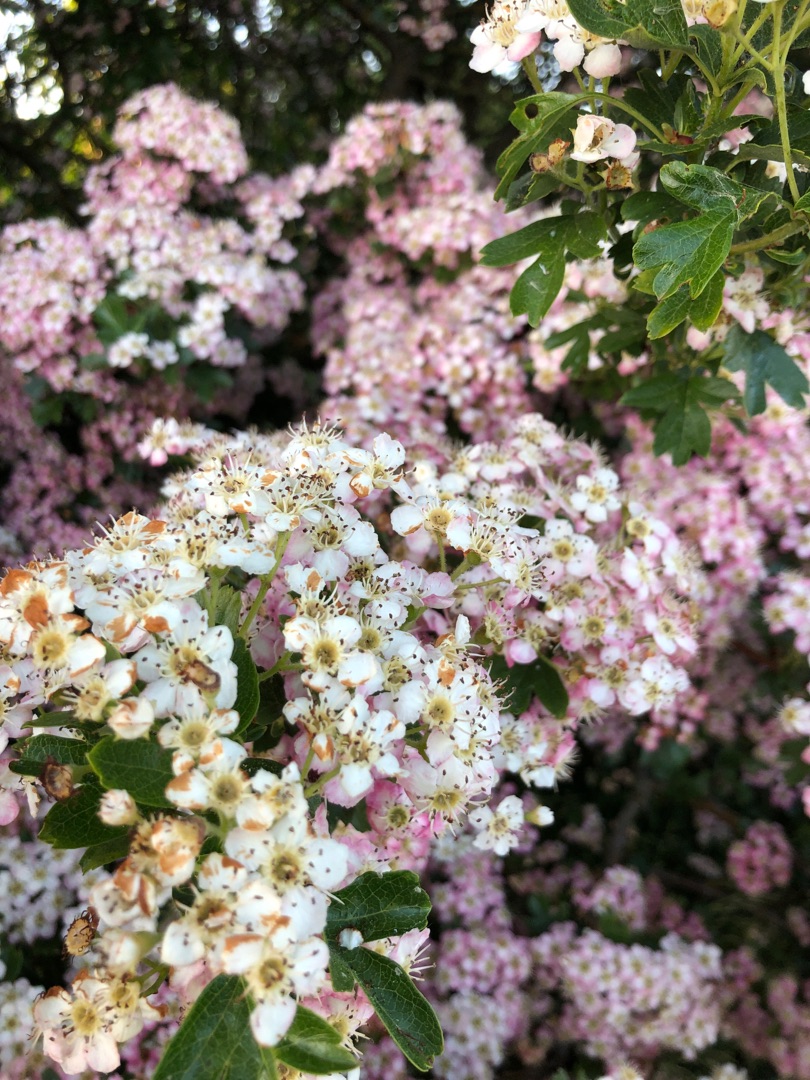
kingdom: Plantae
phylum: Tracheophyta
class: Magnoliopsida
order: Rosales
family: Rosaceae
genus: Crataegus
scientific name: Crataegus monogyna
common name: Engriflet hvidtjørn
